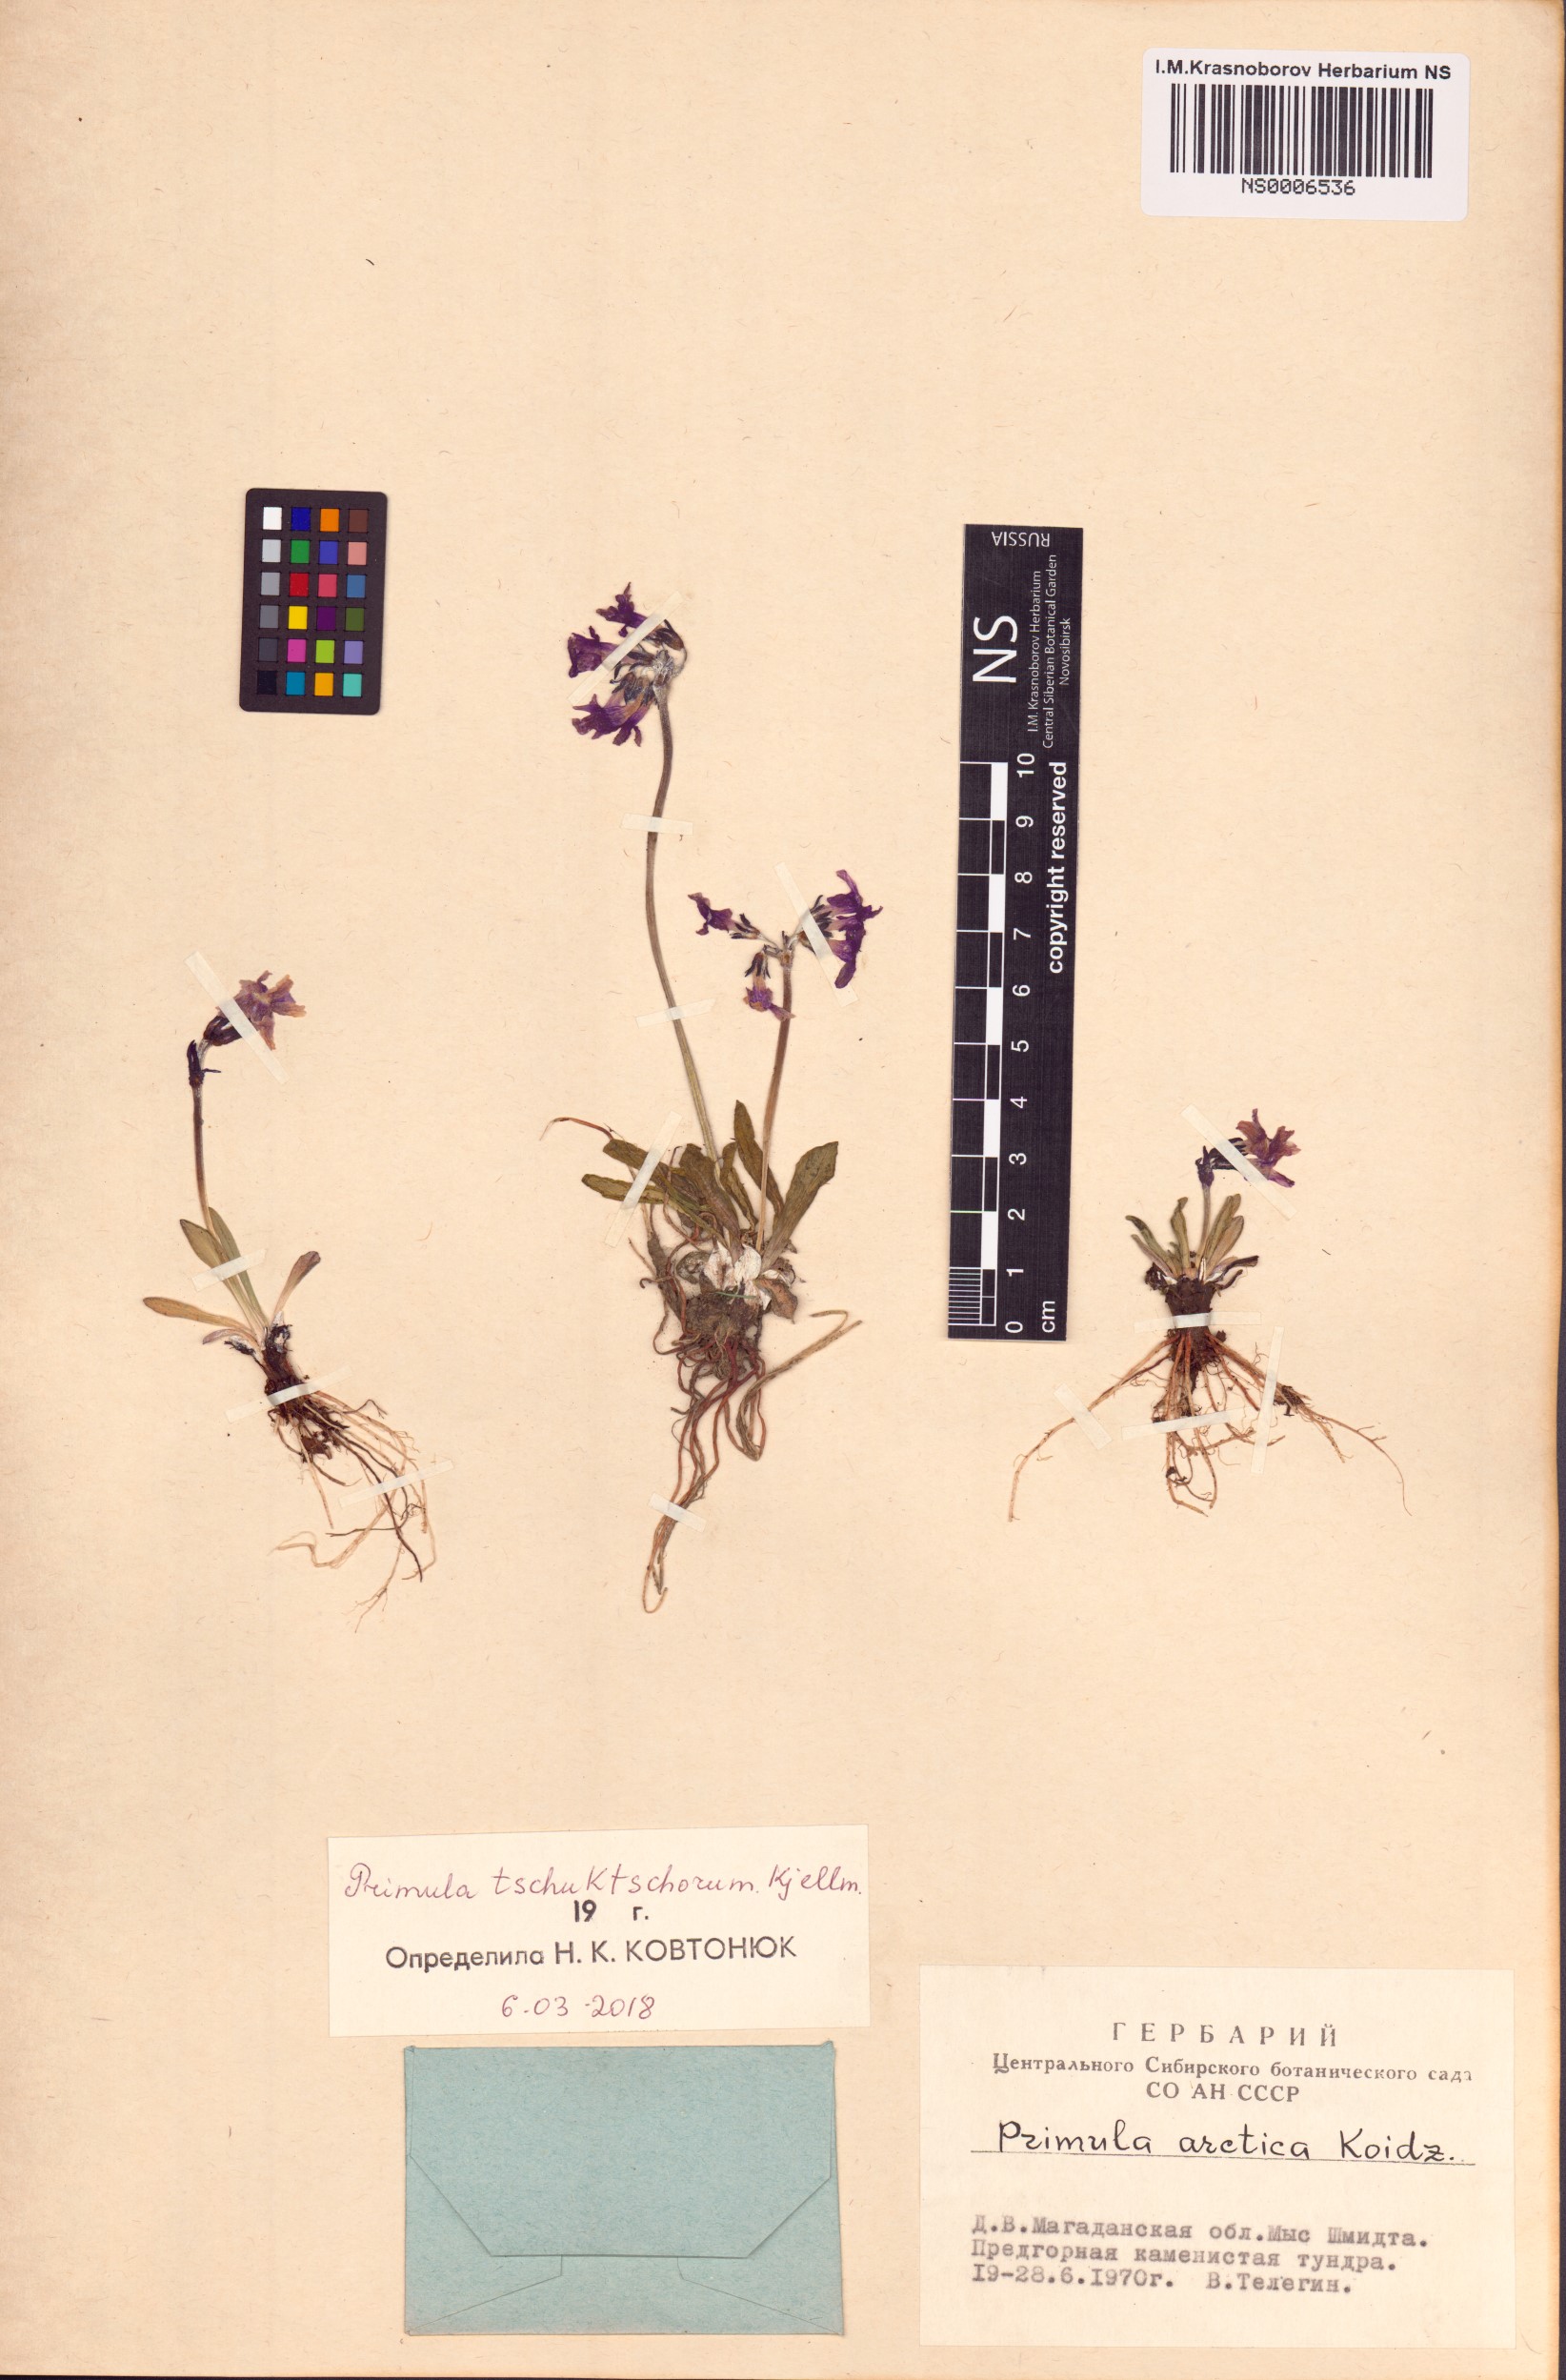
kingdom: Plantae
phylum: Tracheophyta
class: Magnoliopsida
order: Ericales
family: Primulaceae
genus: Primula
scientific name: Primula tschuktschorum
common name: Chukchi primrose
